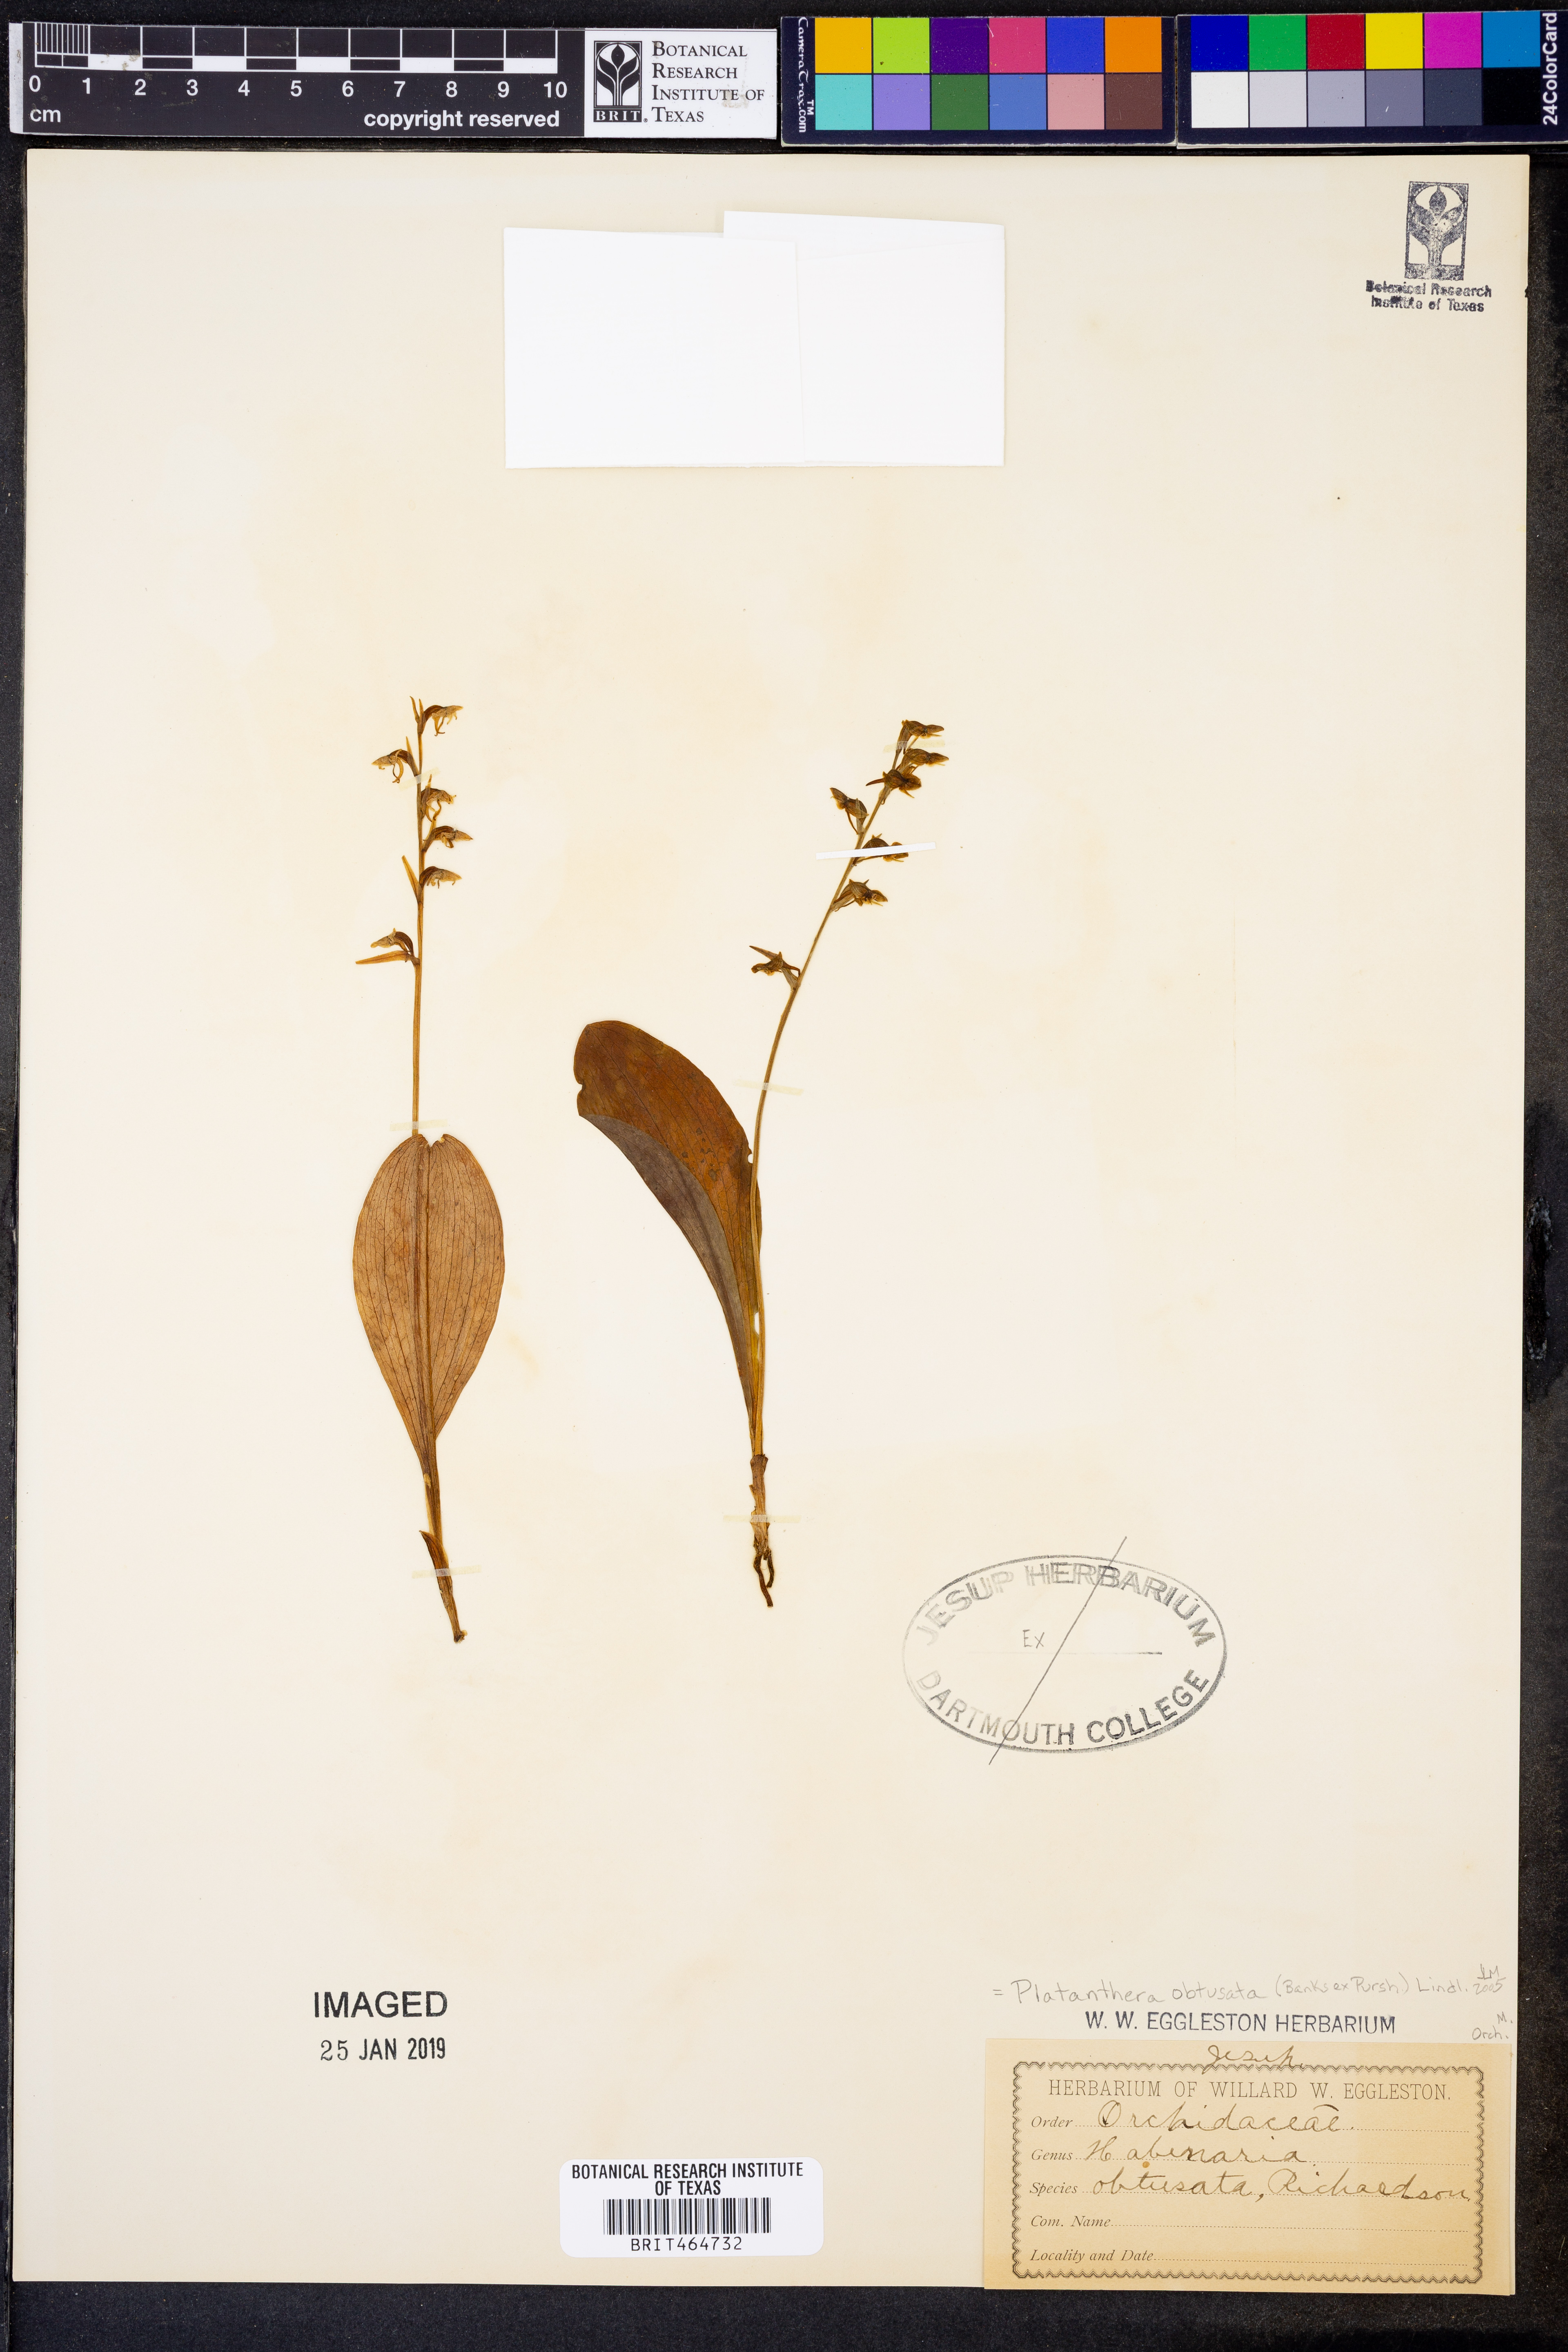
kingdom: Plantae
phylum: Tracheophyta
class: Liliopsida
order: Asparagales
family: Orchidaceae
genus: Platanthera
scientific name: Platanthera obtusata
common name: Blunt bog orchid
